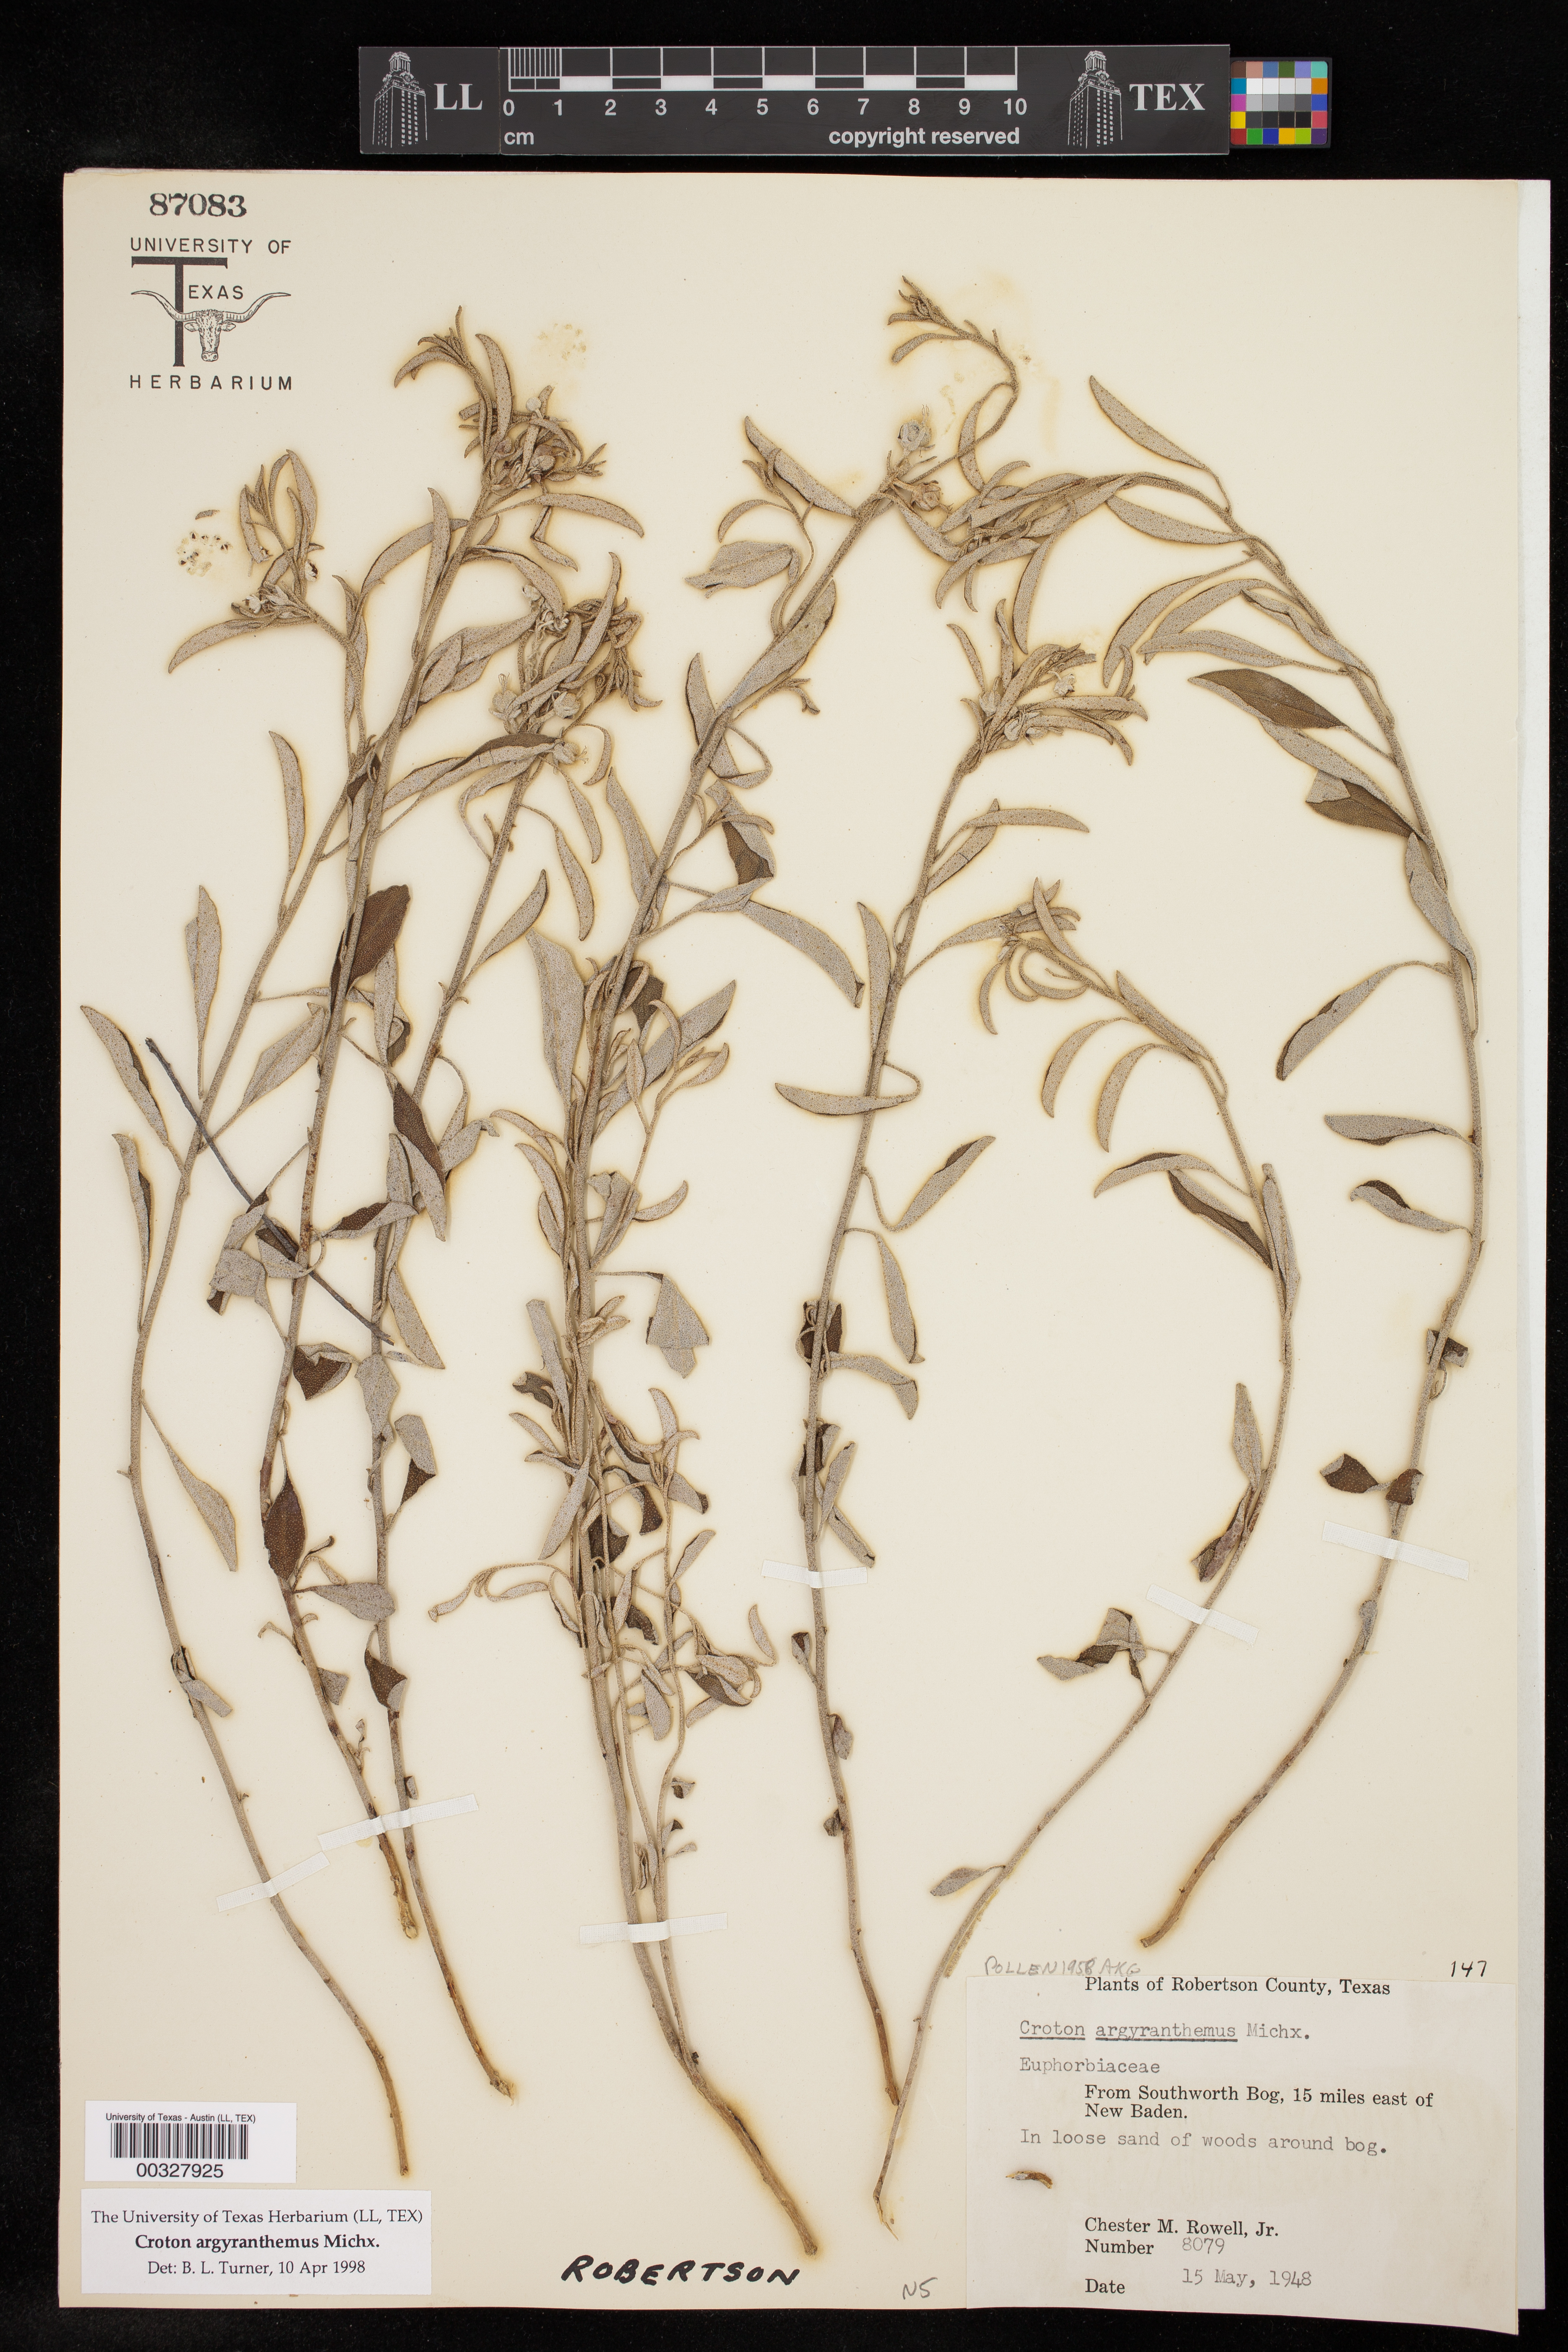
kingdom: Plantae
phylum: Tracheophyta
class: Magnoliopsida
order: Malpighiales
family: Euphorbiaceae
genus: Croton
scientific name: Croton argyranthemus
